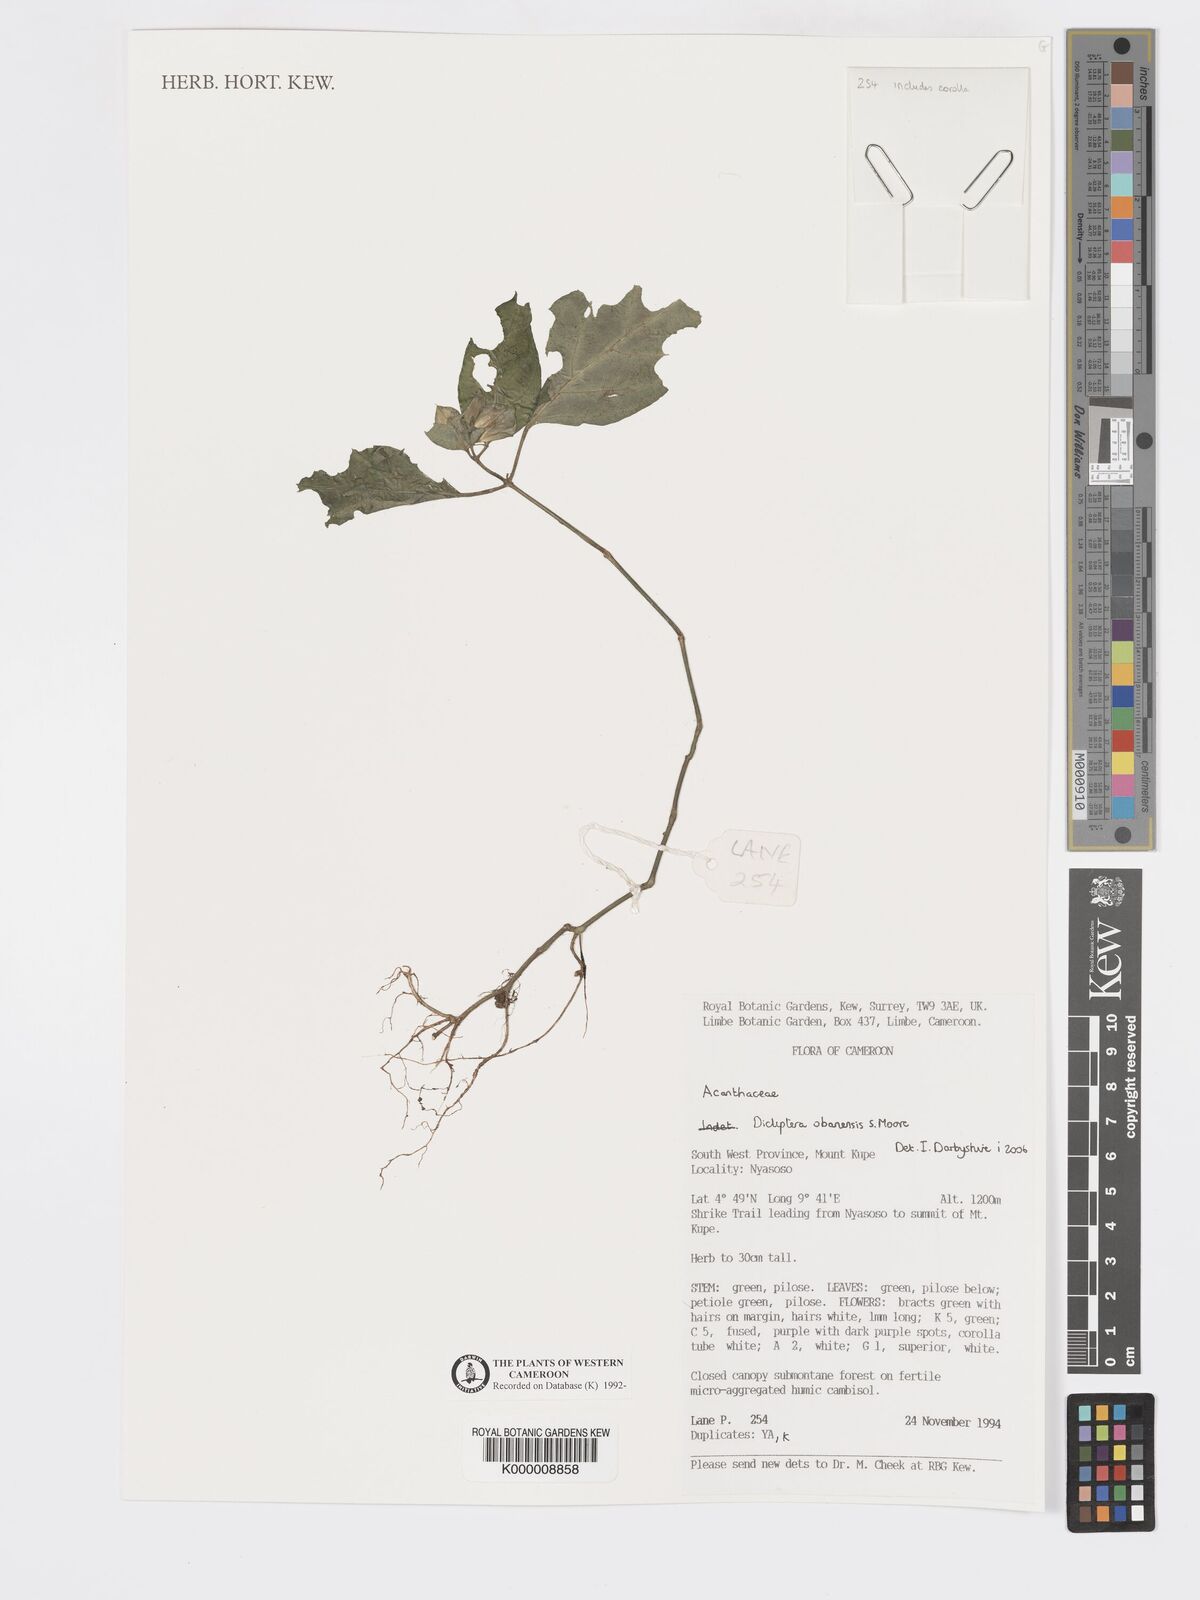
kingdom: Plantae
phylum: Tracheophyta
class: Magnoliopsida
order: Lamiales
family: Acanthaceae
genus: Dicliptera
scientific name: Dicliptera elliotii
